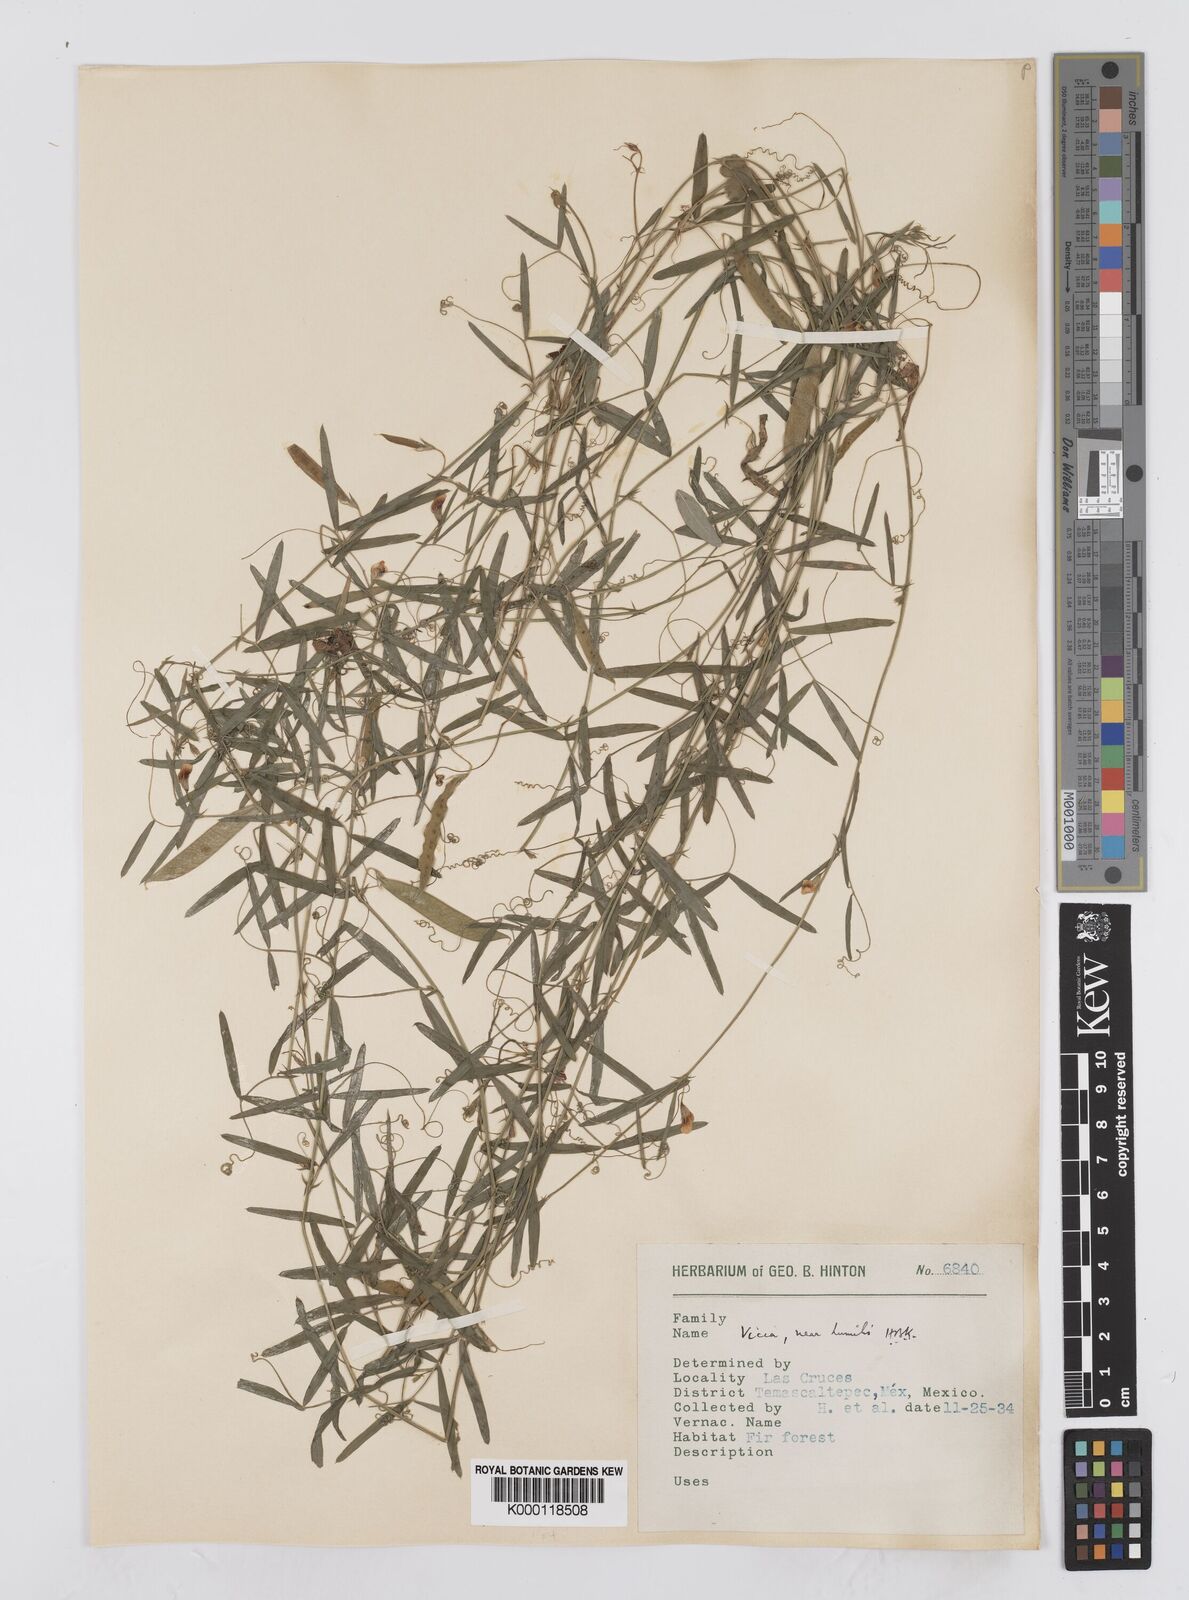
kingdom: Plantae
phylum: Tracheophyta
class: Magnoliopsida
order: Fabales
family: Fabaceae
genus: Vicia
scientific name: Vicia humilis
